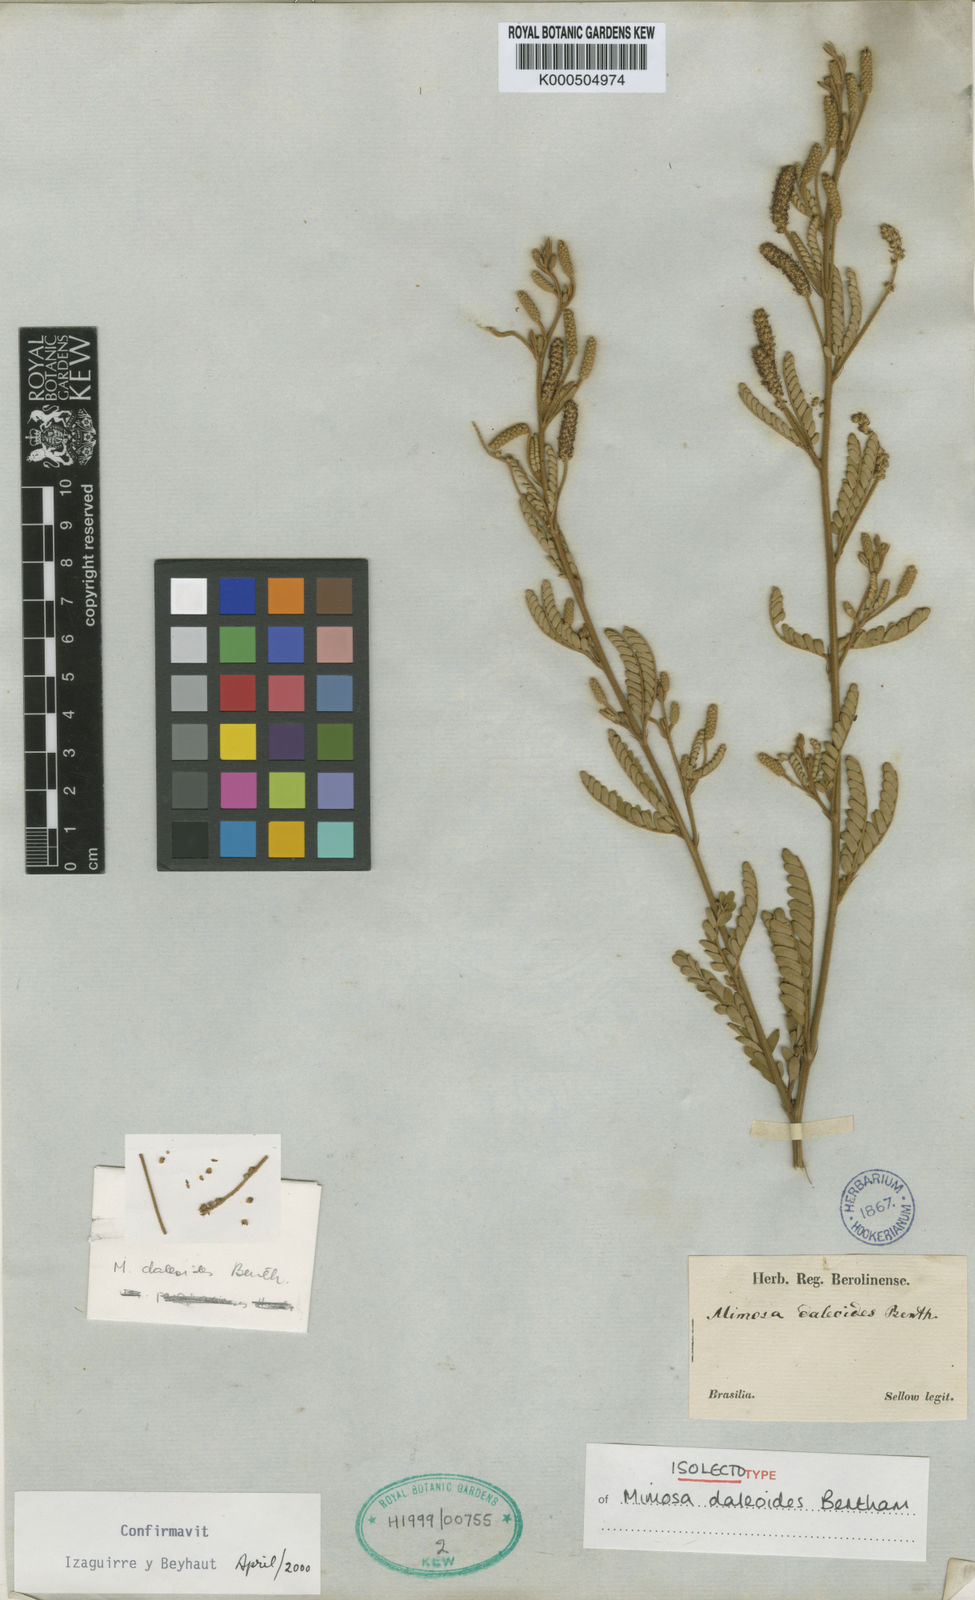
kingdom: Plantae
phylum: Tracheophyta
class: Magnoliopsida
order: Fabales
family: Fabaceae
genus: Mimosa
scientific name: Mimosa daleoides
